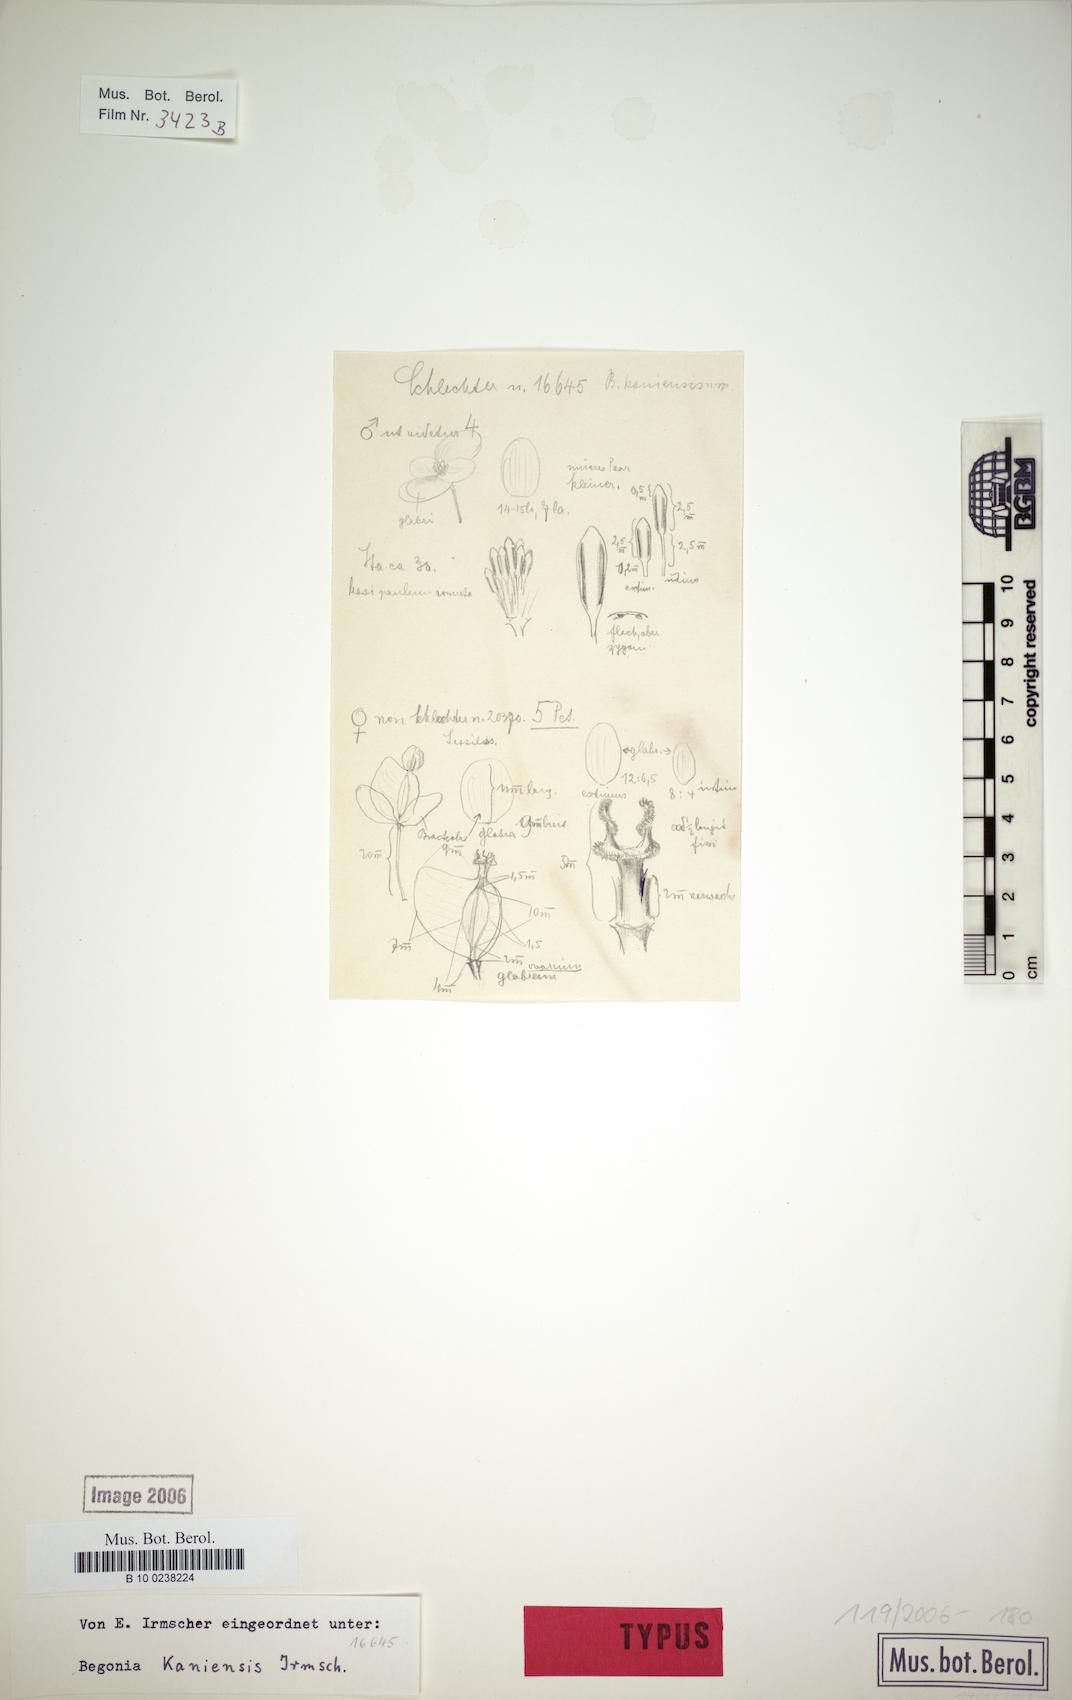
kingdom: Plantae
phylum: Tracheophyta
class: Magnoliopsida
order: Cucurbitales
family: Begoniaceae
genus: Begonia
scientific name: Begonia kaniensis
